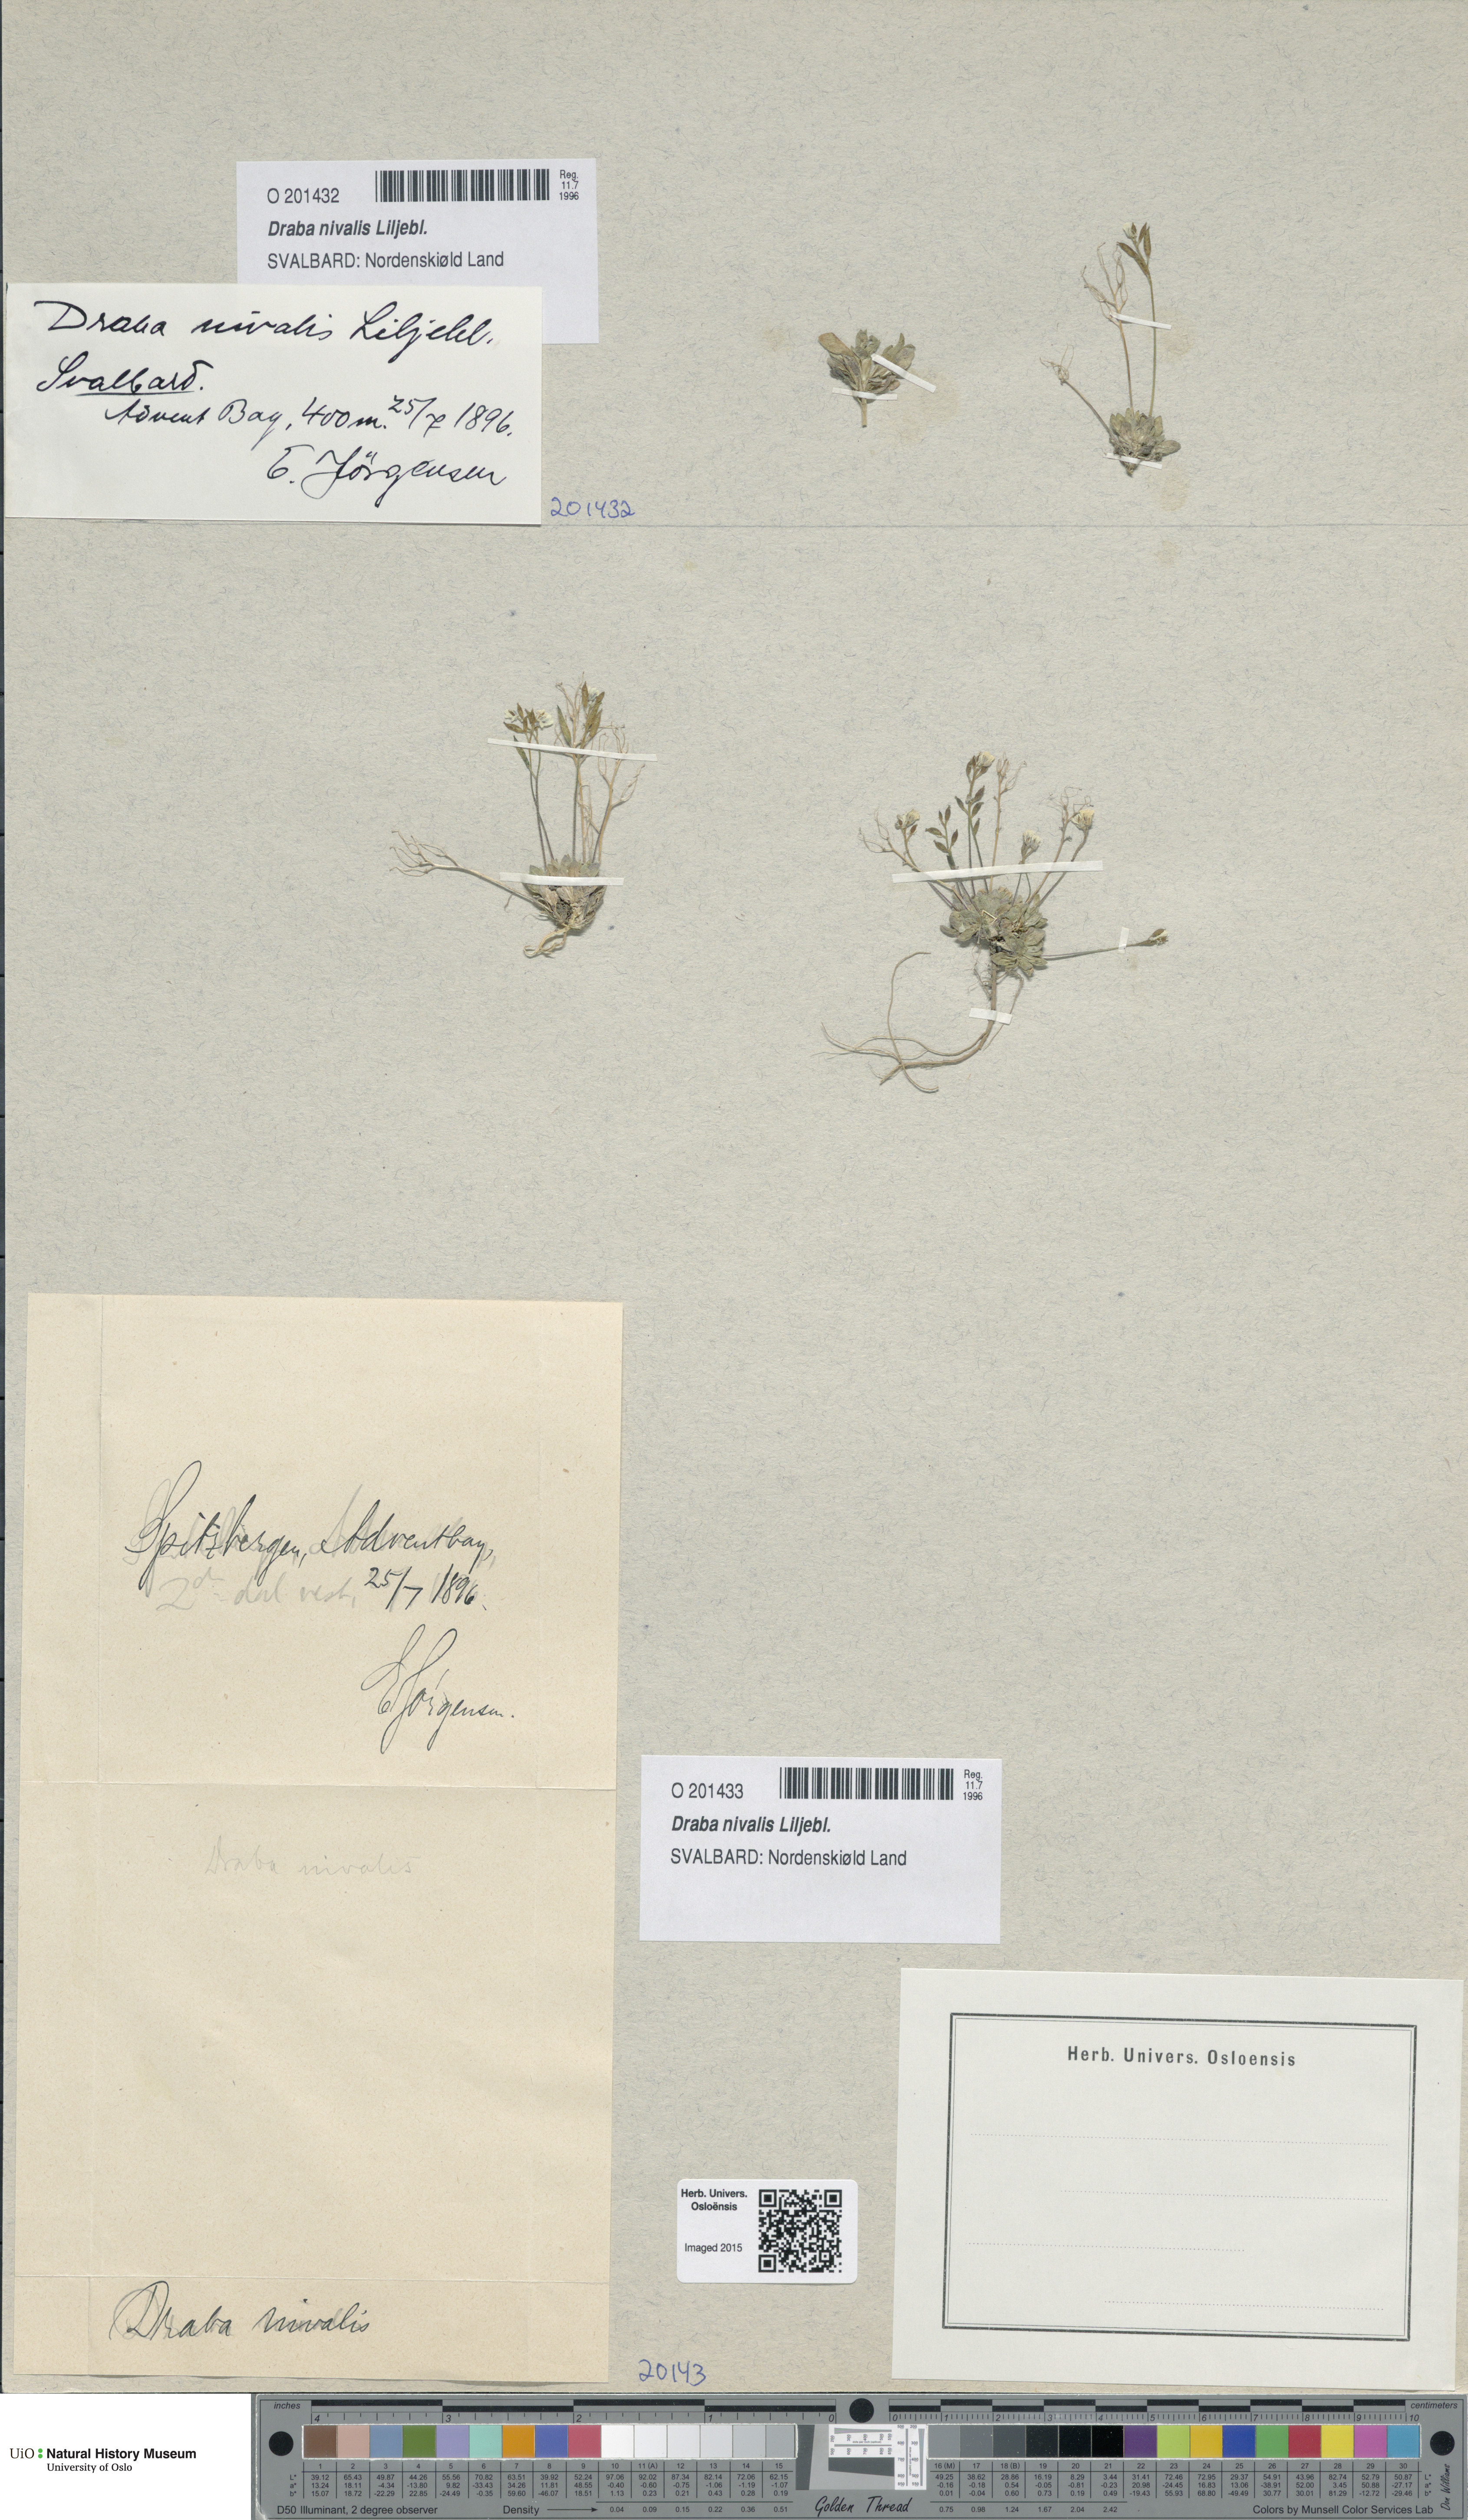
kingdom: Plantae
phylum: Tracheophyta
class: Magnoliopsida
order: Brassicales
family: Brassicaceae
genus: Draba
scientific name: Draba nivalis
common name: Snow draba
